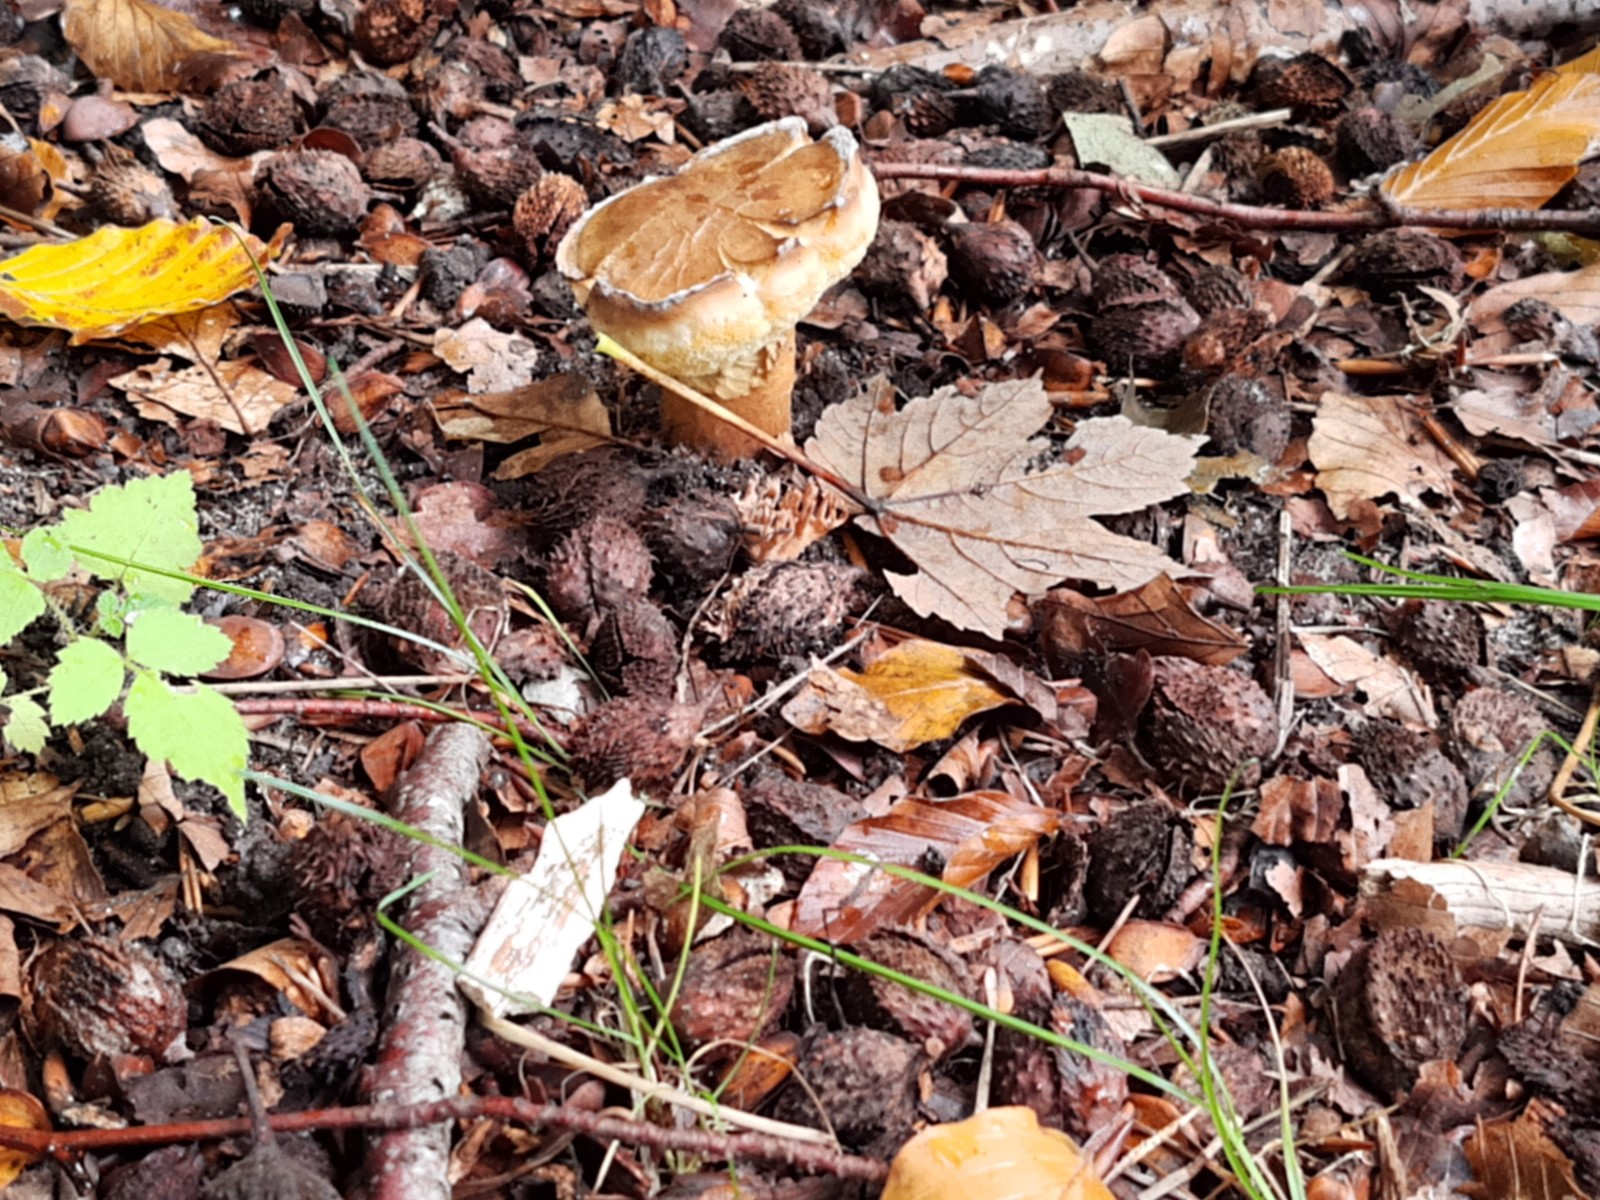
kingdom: Fungi
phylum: Basidiomycota
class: Agaricomycetes
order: Boletales
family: Gyroporaceae
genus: Gyroporus
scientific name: Gyroporus castaneus
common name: kastanie-kammerrørhat
